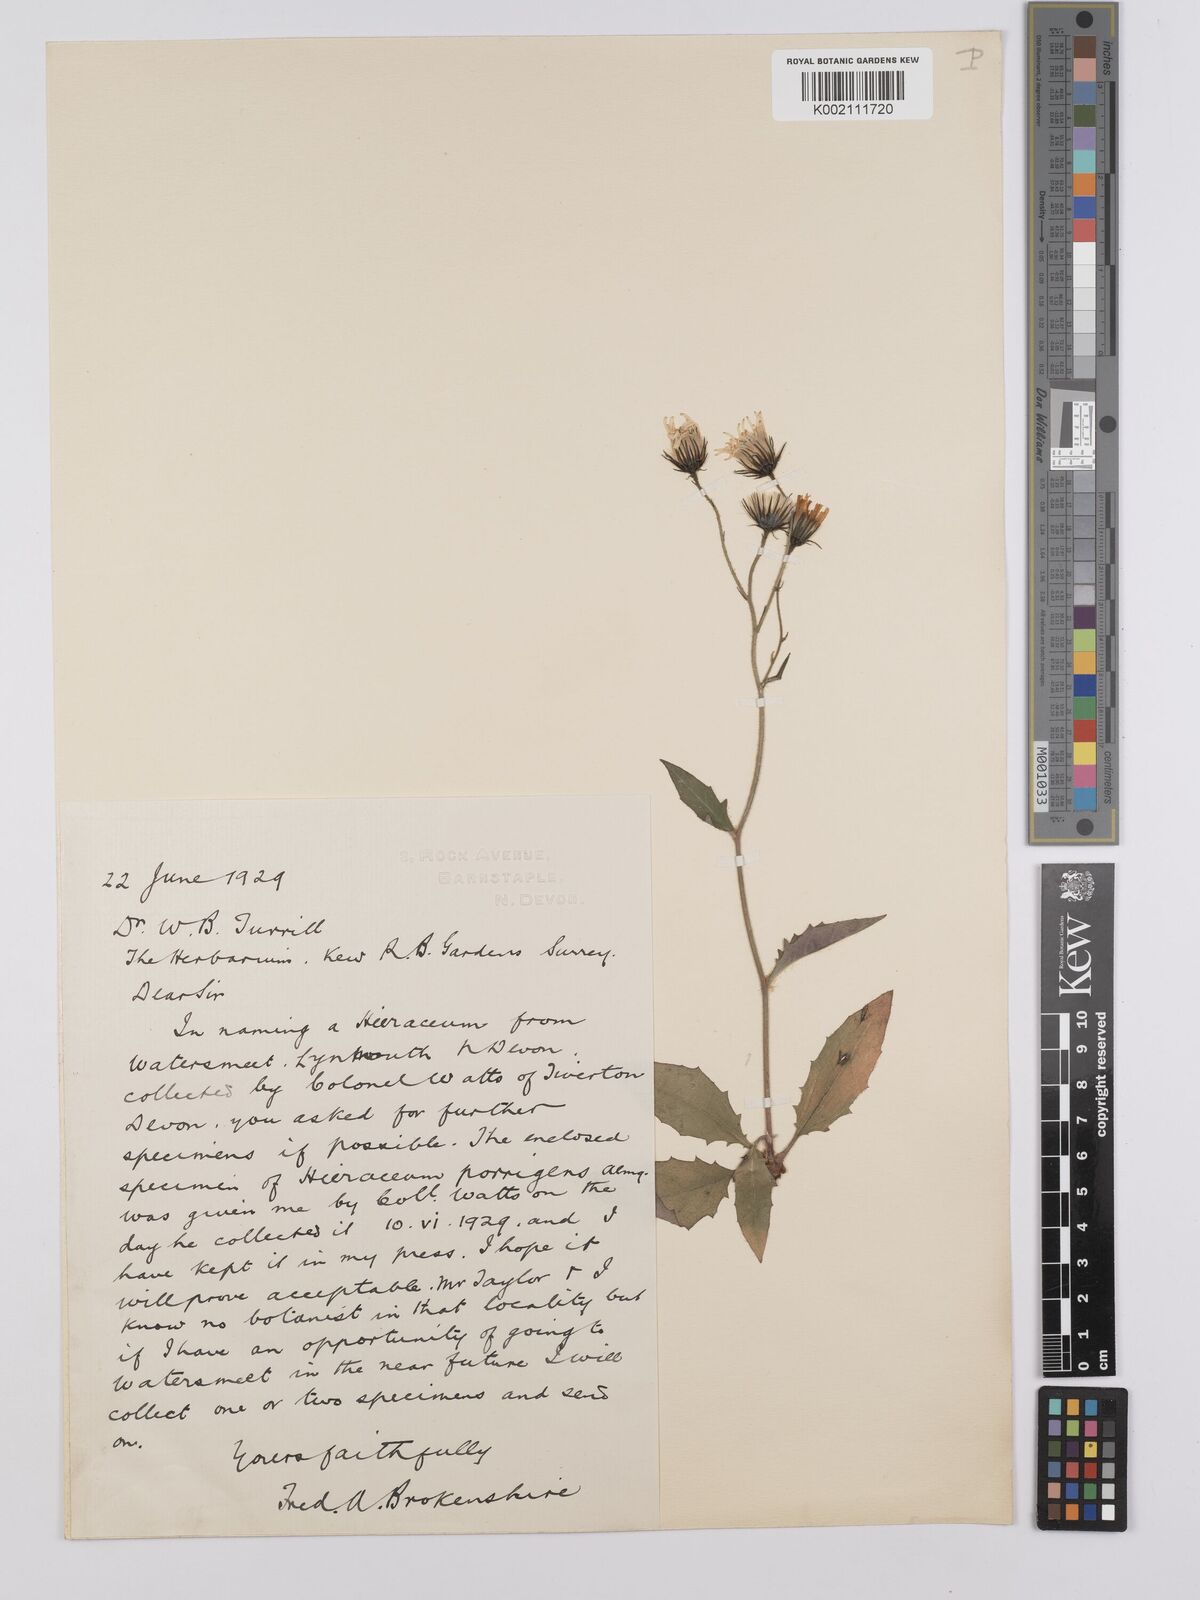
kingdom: Plantae
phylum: Tracheophyta
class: Magnoliopsida
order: Asterales
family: Asteraceae
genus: Hieracium
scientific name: Hieracium
